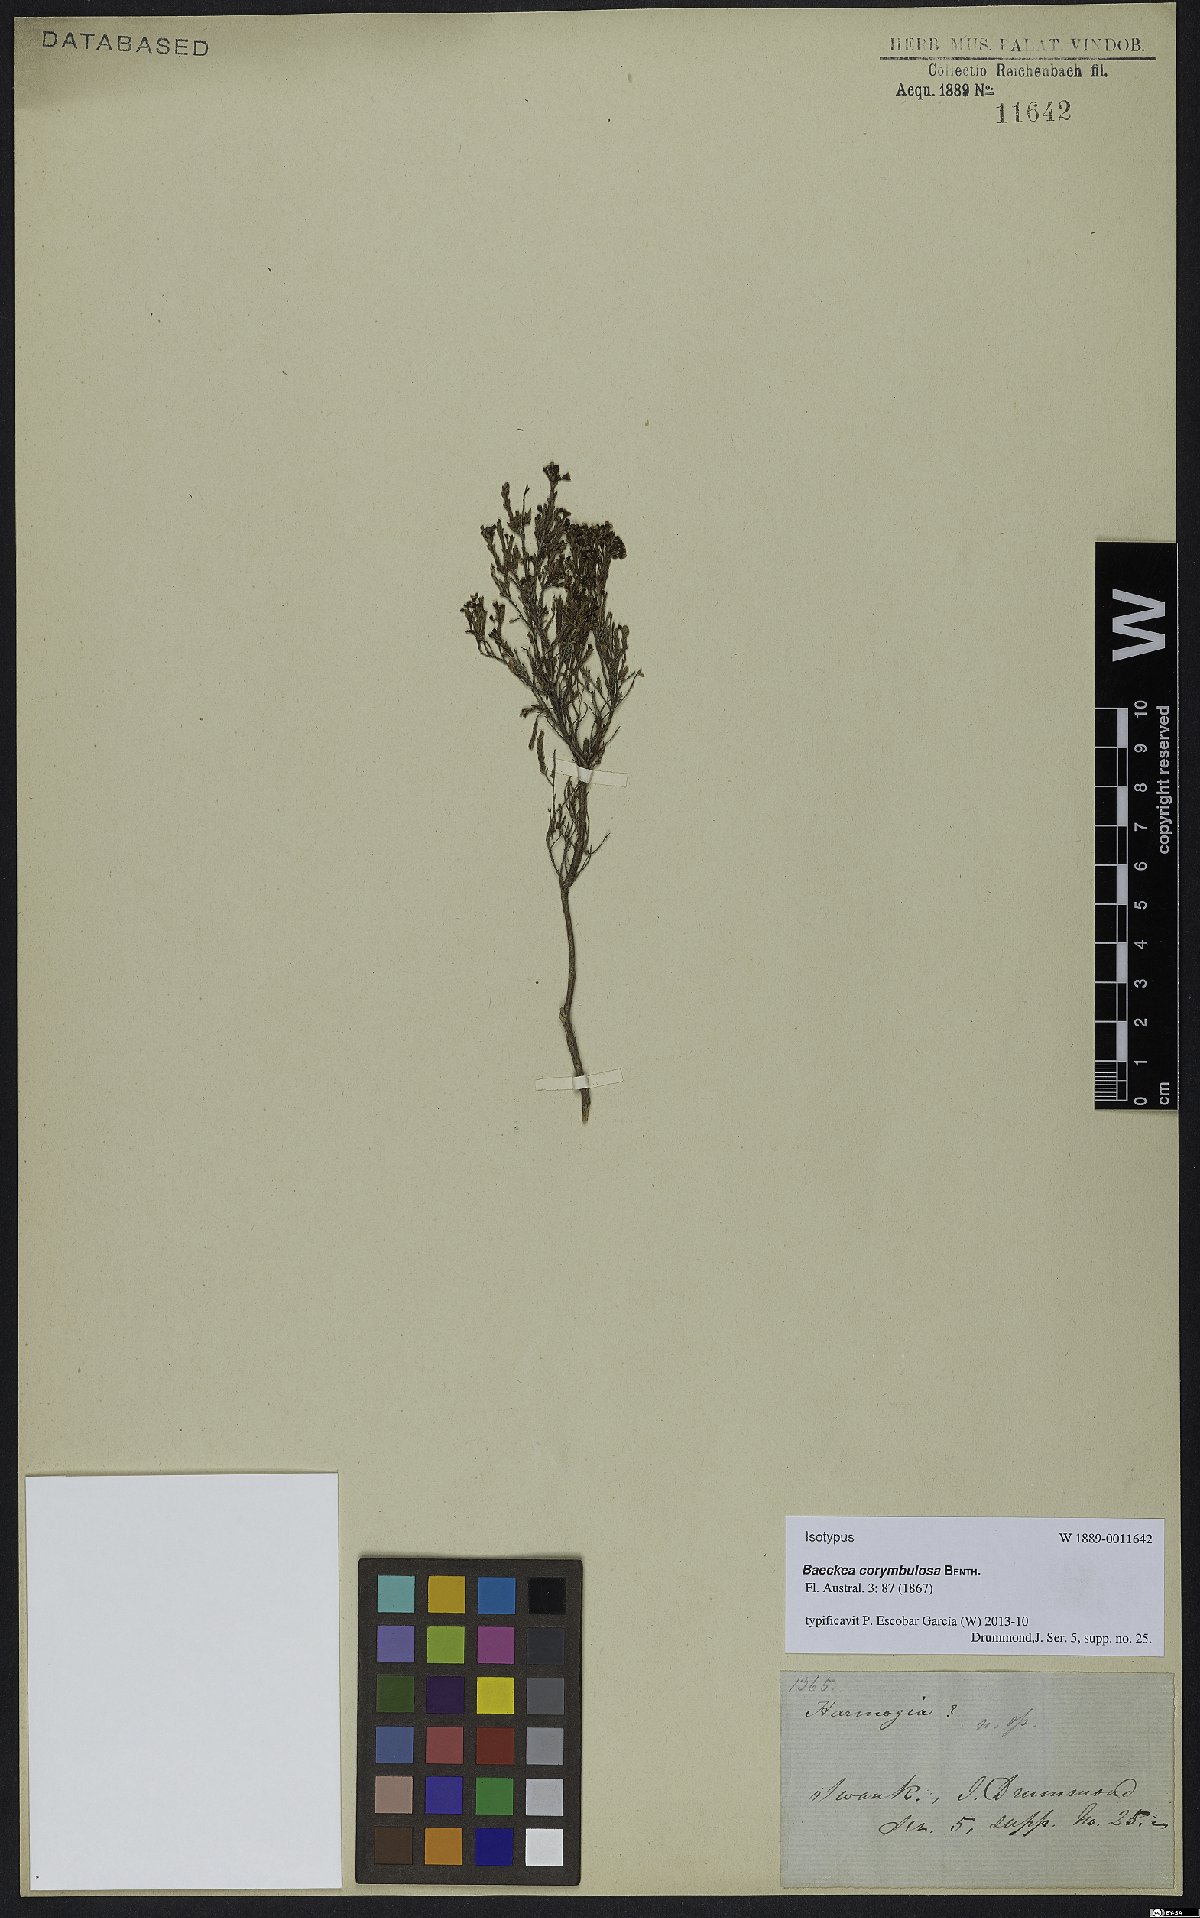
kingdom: Plantae
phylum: Tracheophyta
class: Magnoliopsida
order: Myrtales
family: Myrtaceae
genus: Ericomyrtus
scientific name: Ericomyrtus parviflora
